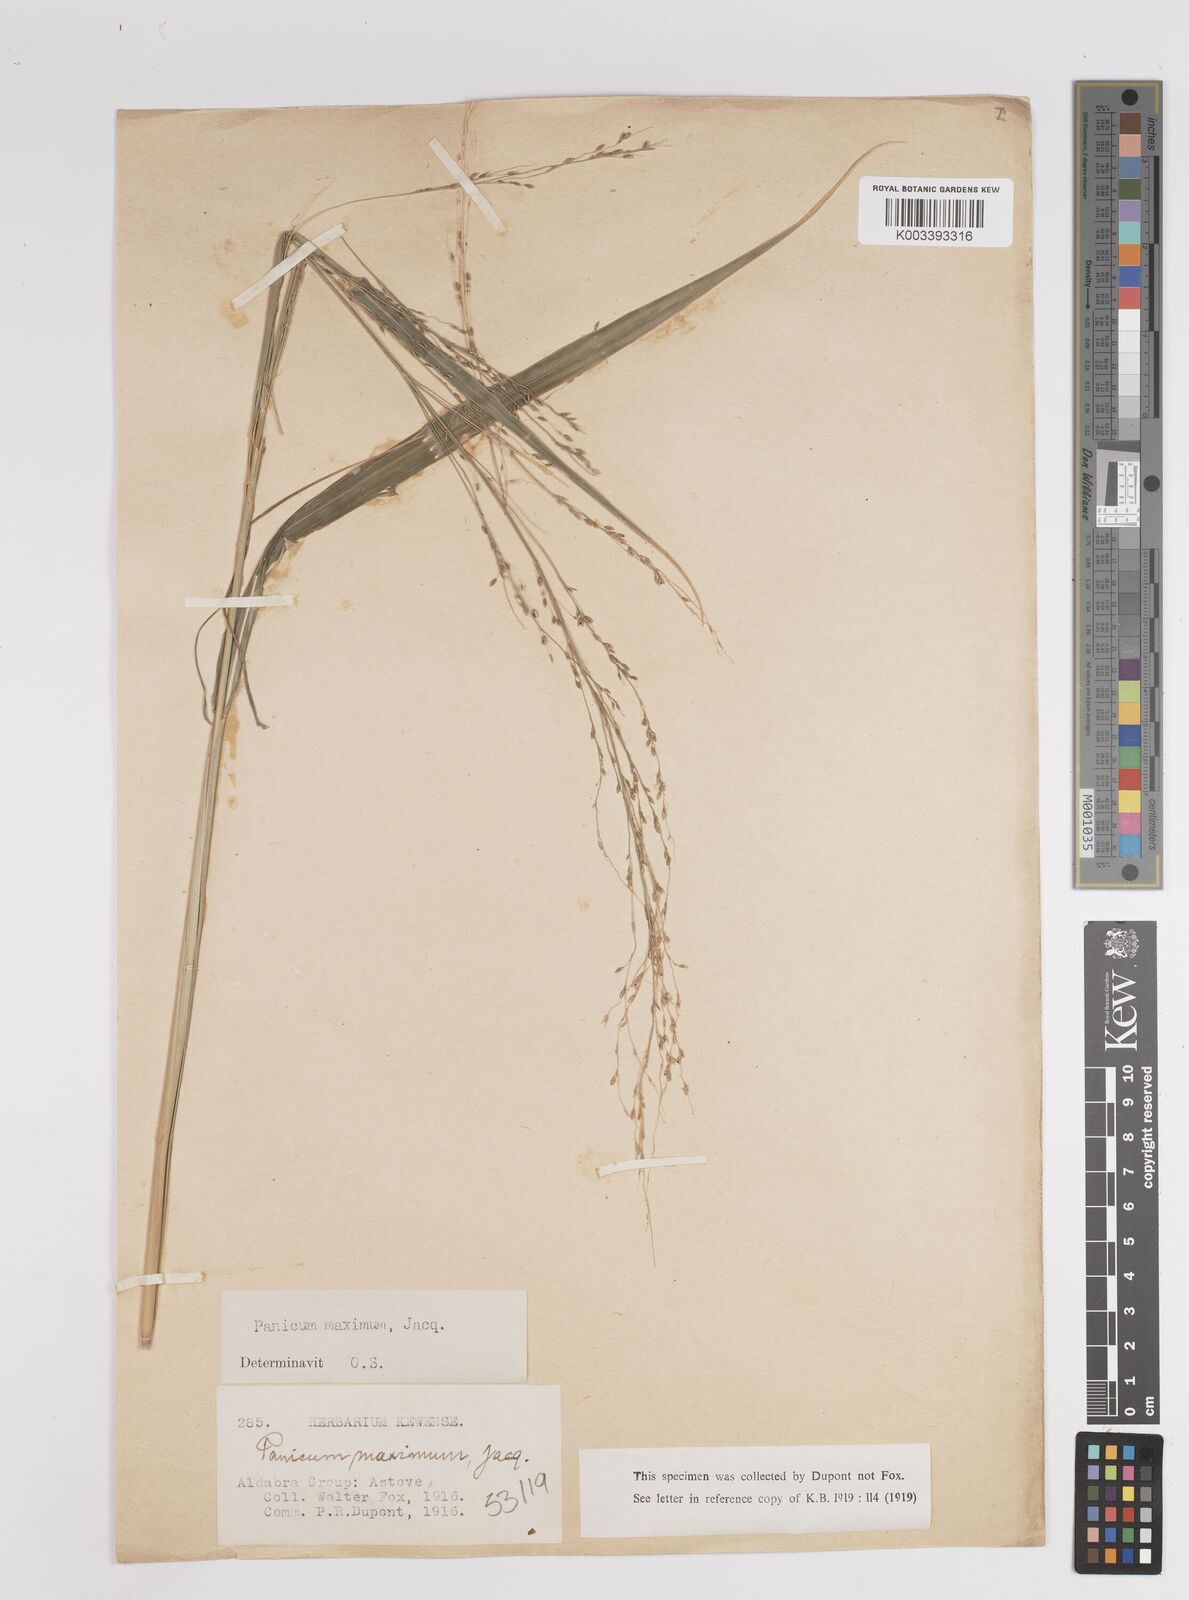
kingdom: Plantae
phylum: Tracheophyta
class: Liliopsida
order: Poales
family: Poaceae
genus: Megathyrsus
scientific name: Megathyrsus maximus
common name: Guineagrass
